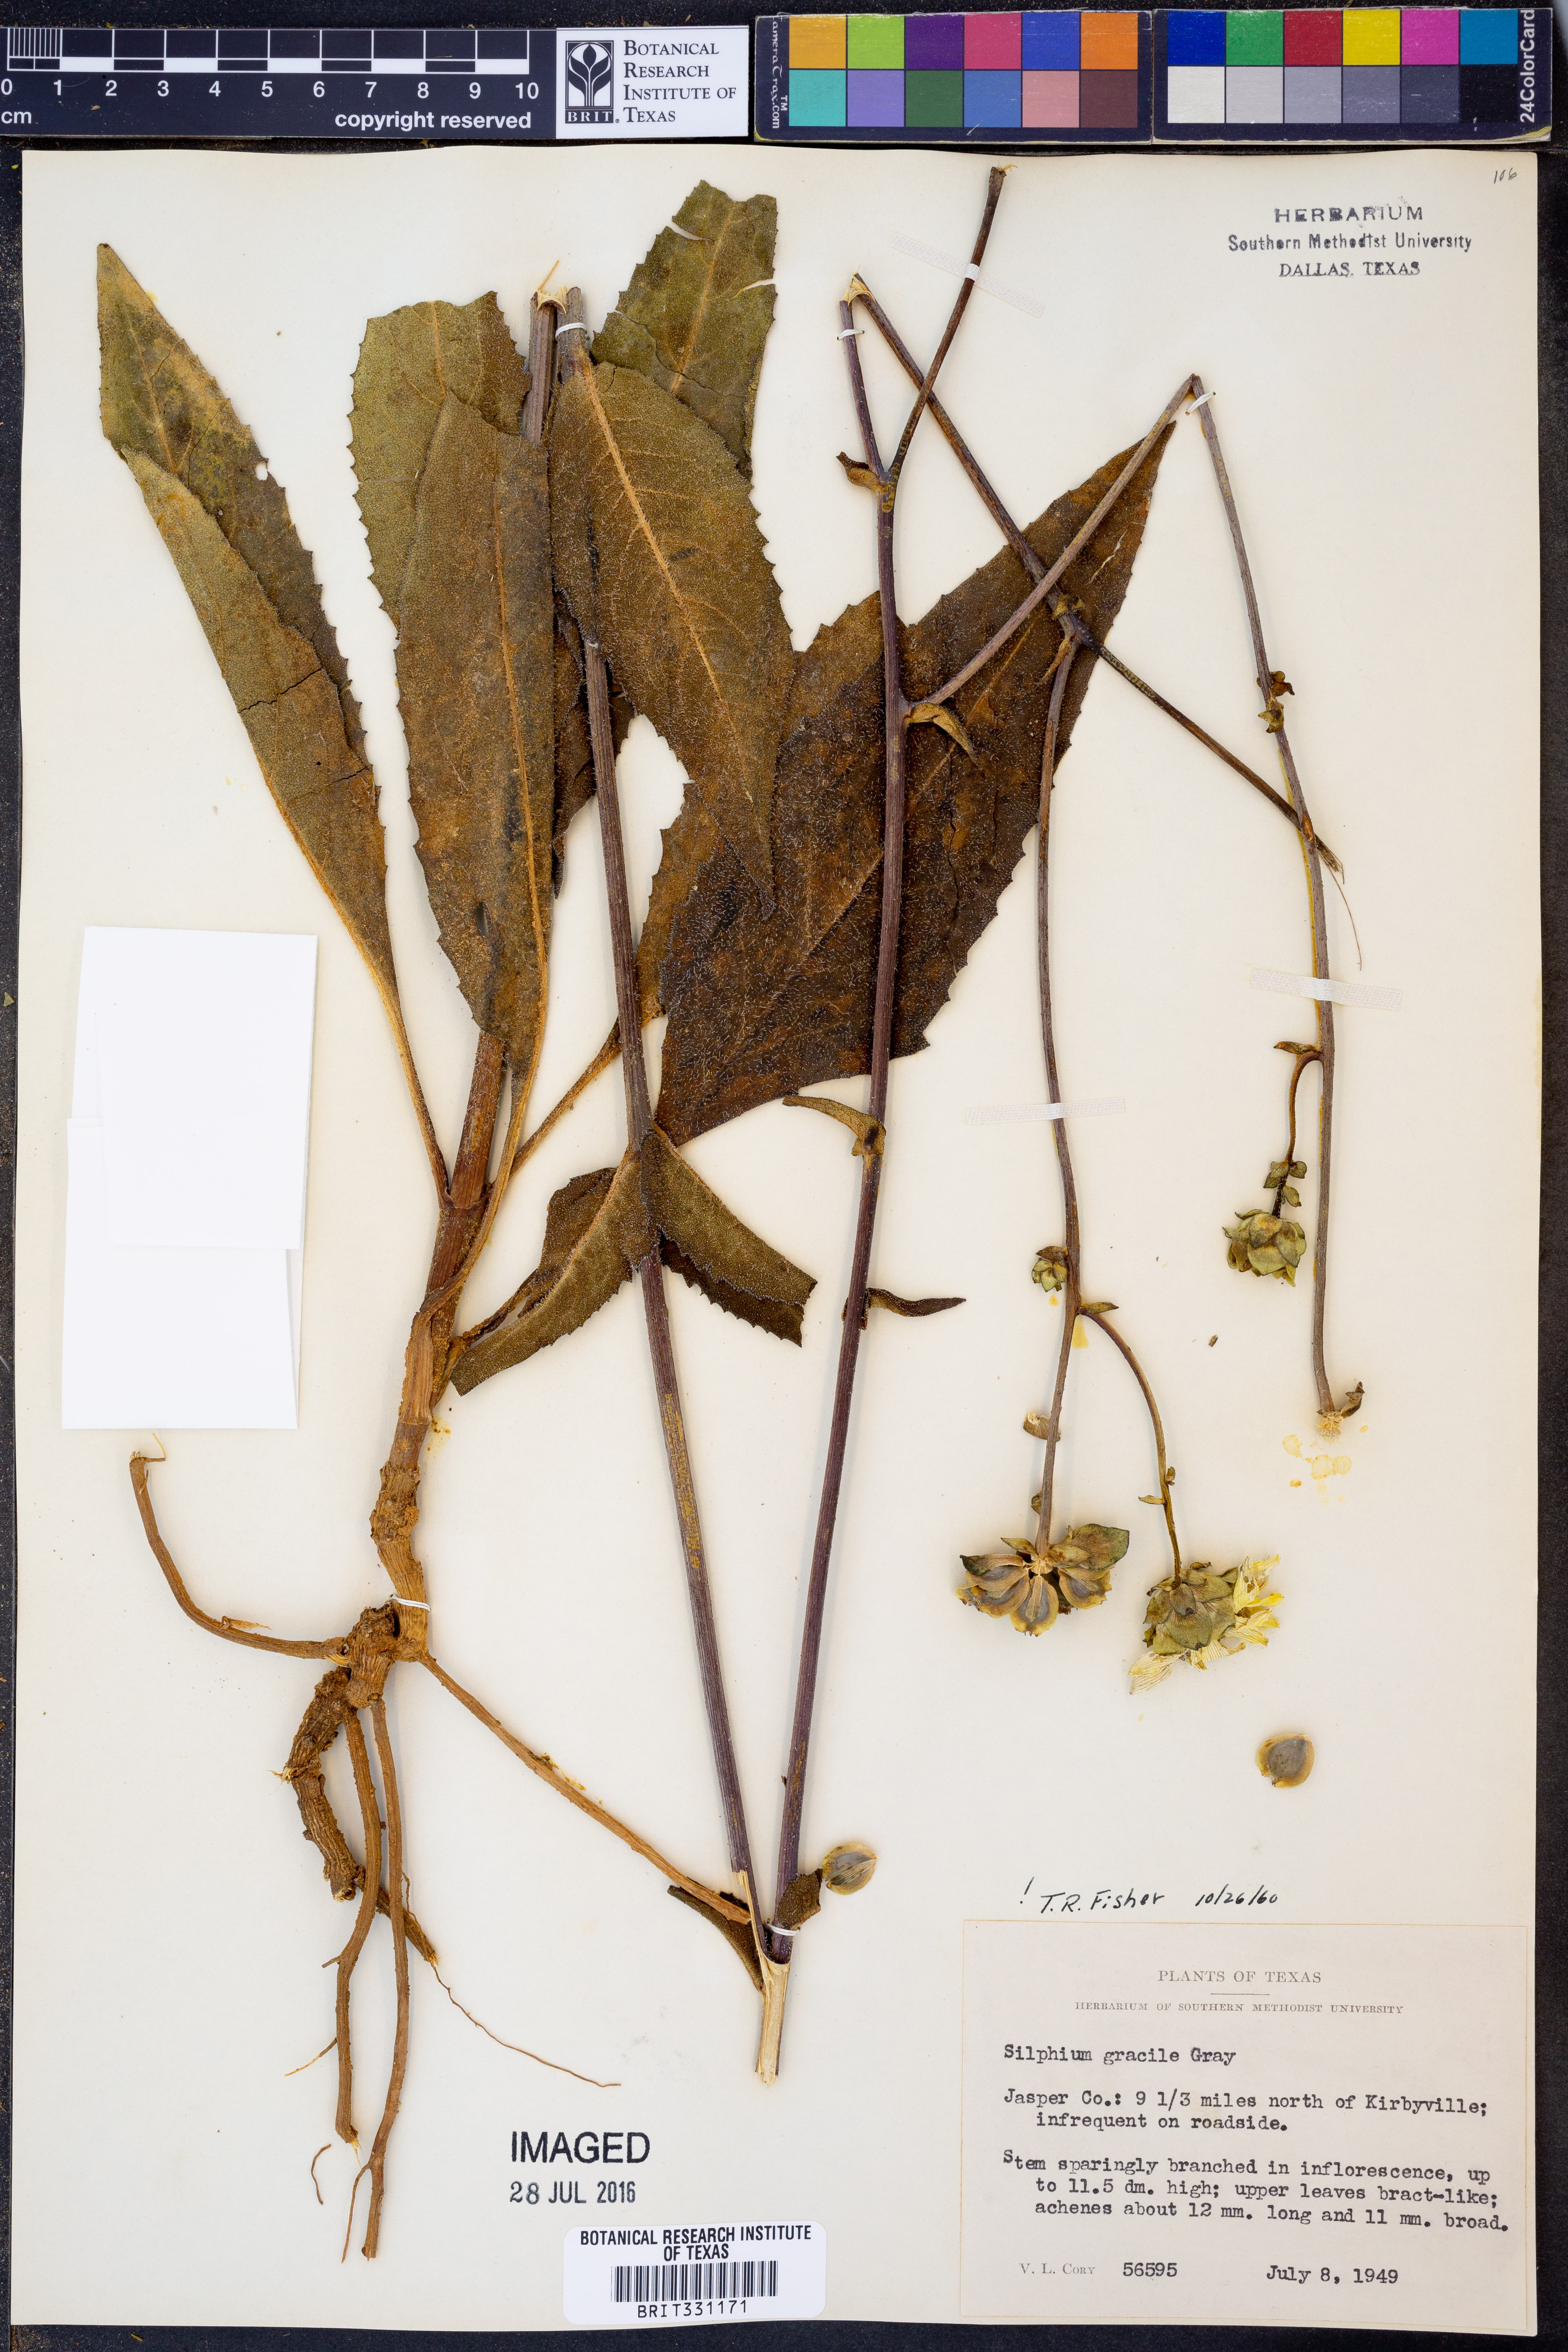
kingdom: Plantae
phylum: Tracheophyta
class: Magnoliopsida
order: Asterales
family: Asteraceae
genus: Silphium
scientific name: Silphium radula
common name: Roughleaf rosinweed
